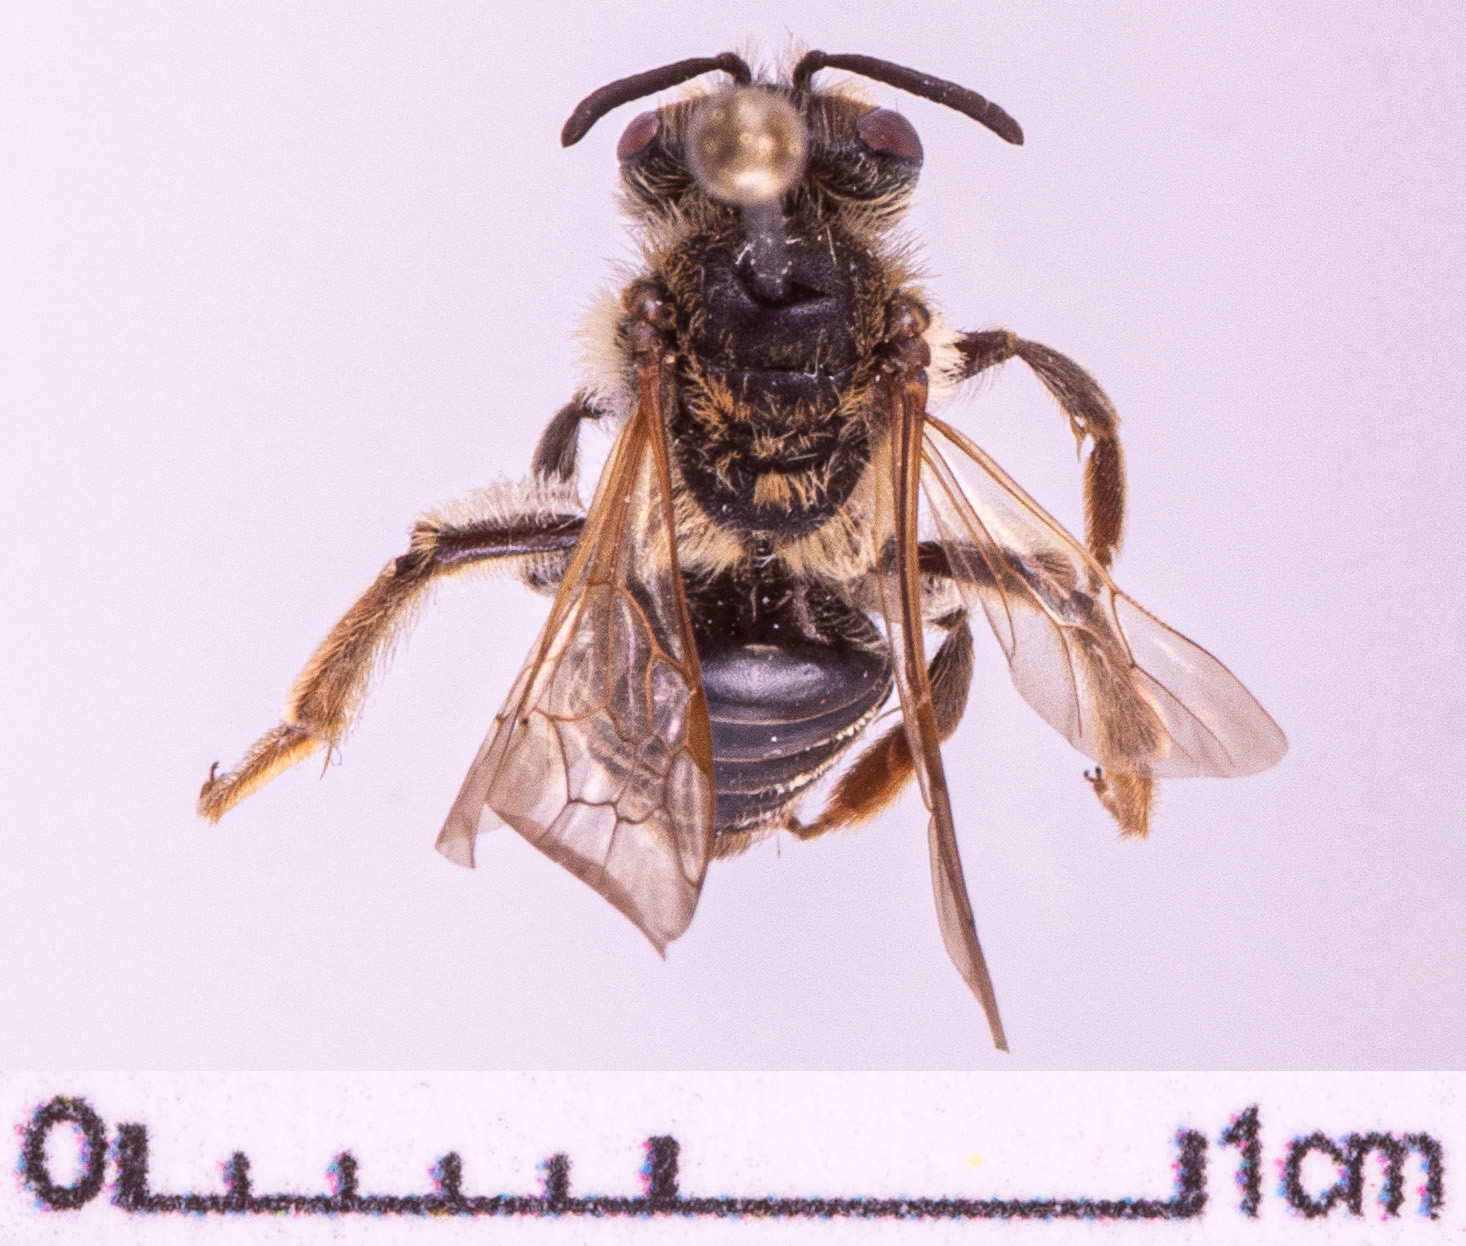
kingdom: Animalia
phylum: Arthropoda
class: Insecta
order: Hymenoptera
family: Andrenidae
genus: Andrena
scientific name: Andrena dorsata
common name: Short-fringed mining bee
